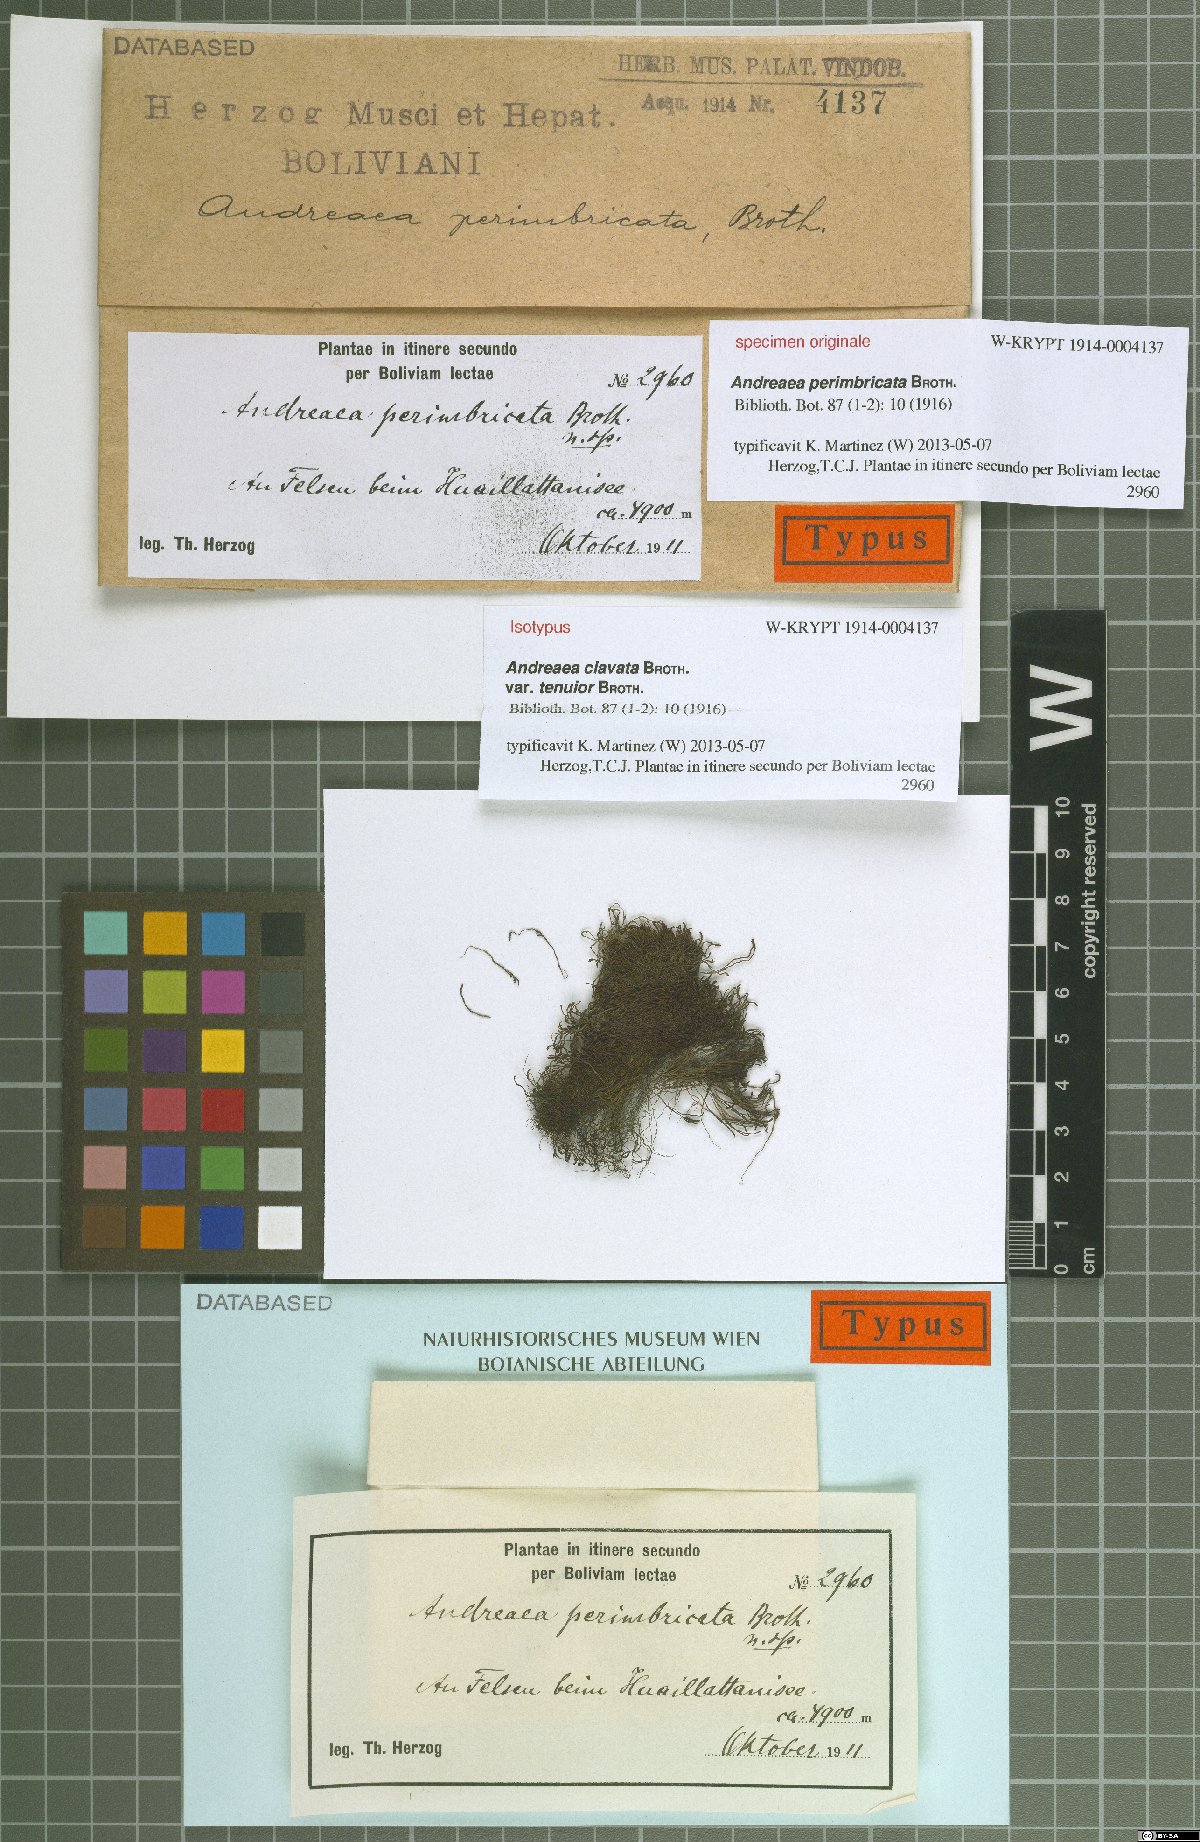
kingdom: Plantae
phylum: Bryophyta
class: Andreaeopsida
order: Andreaeales
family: Andreaeaceae
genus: Andreaea
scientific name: Andreaea clavata
